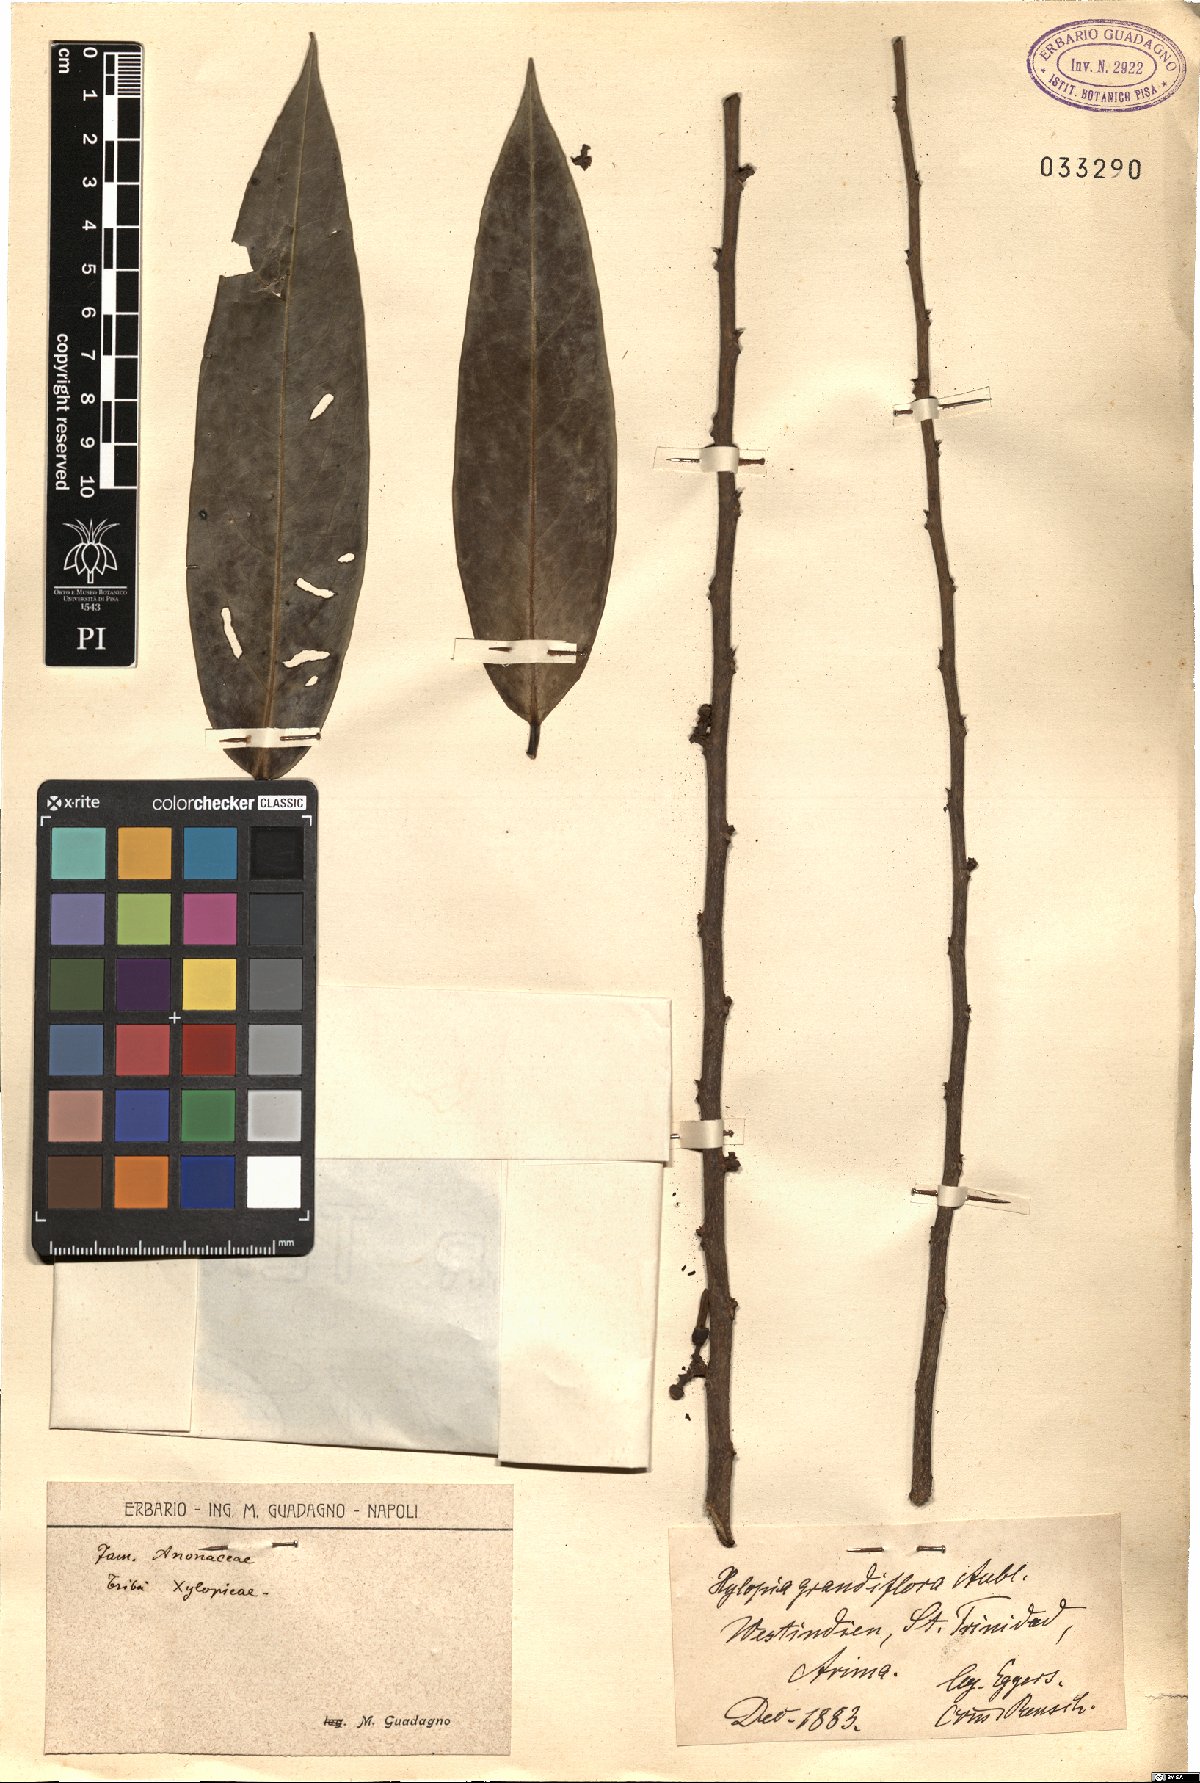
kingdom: Plantae
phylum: Tracheophyta
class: Magnoliopsida
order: Magnoliales
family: Annonaceae
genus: Xylopia
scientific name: Xylopia aromatica
